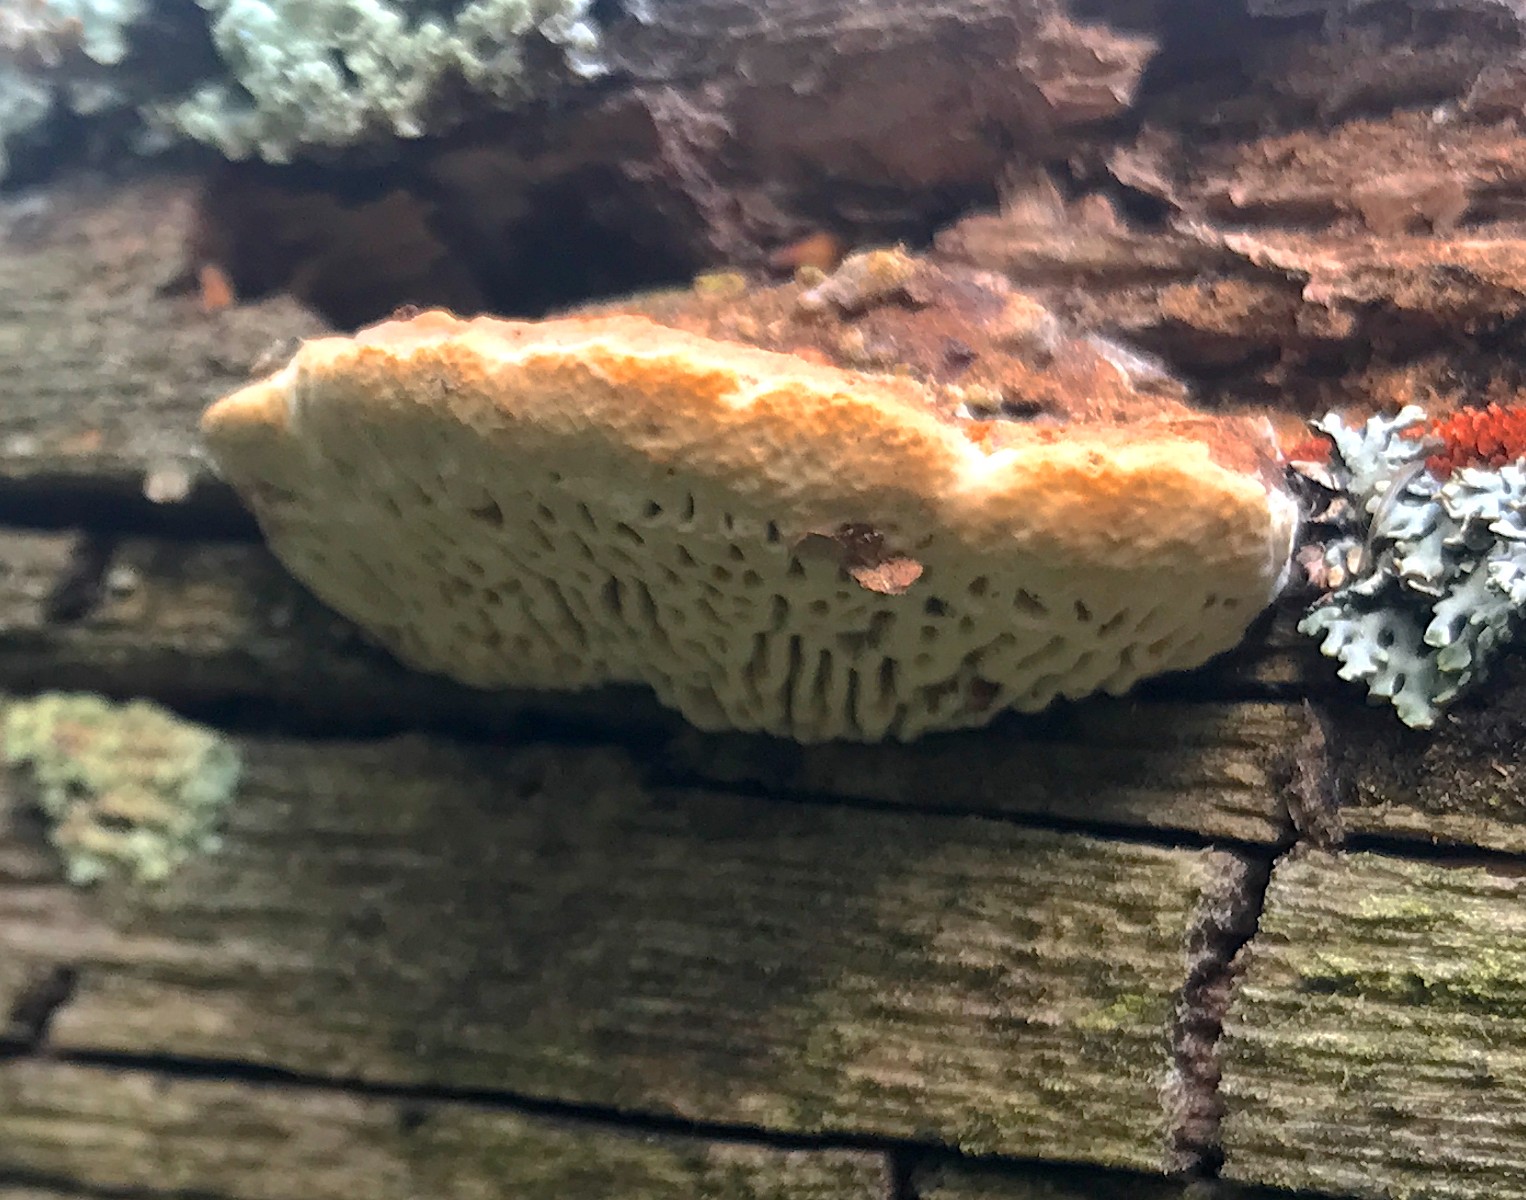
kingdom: Fungi
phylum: Basidiomycota
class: Agaricomycetes
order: Polyporales
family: Fomitopsidaceae
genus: Daedalea
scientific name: Daedalea quercina
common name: ege-labyrintsvamp
